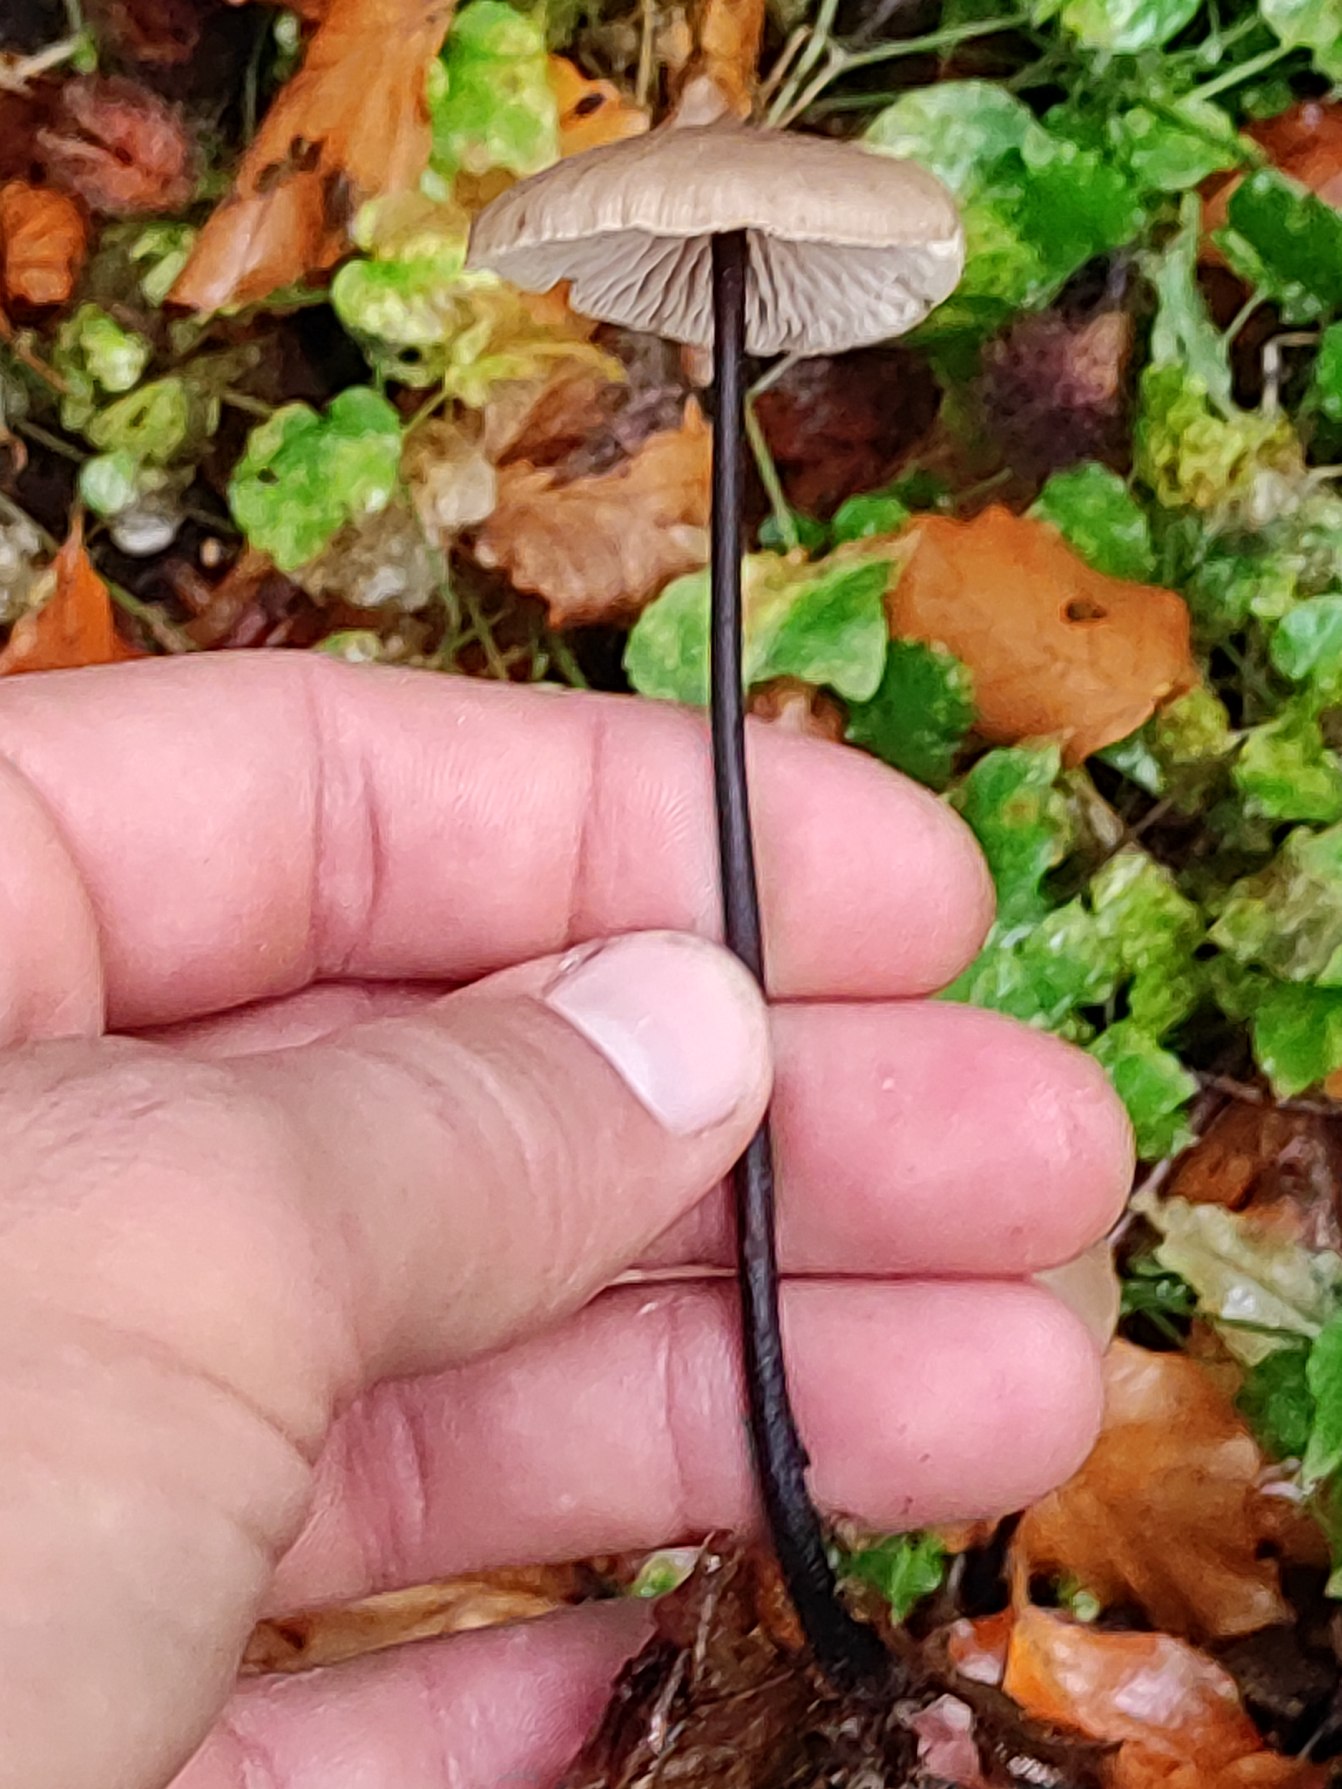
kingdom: Fungi
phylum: Basidiomycota
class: Agaricomycetes
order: Agaricales
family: Omphalotaceae
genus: Mycetinis
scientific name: Mycetinis alliaceus
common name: Stor løghat
